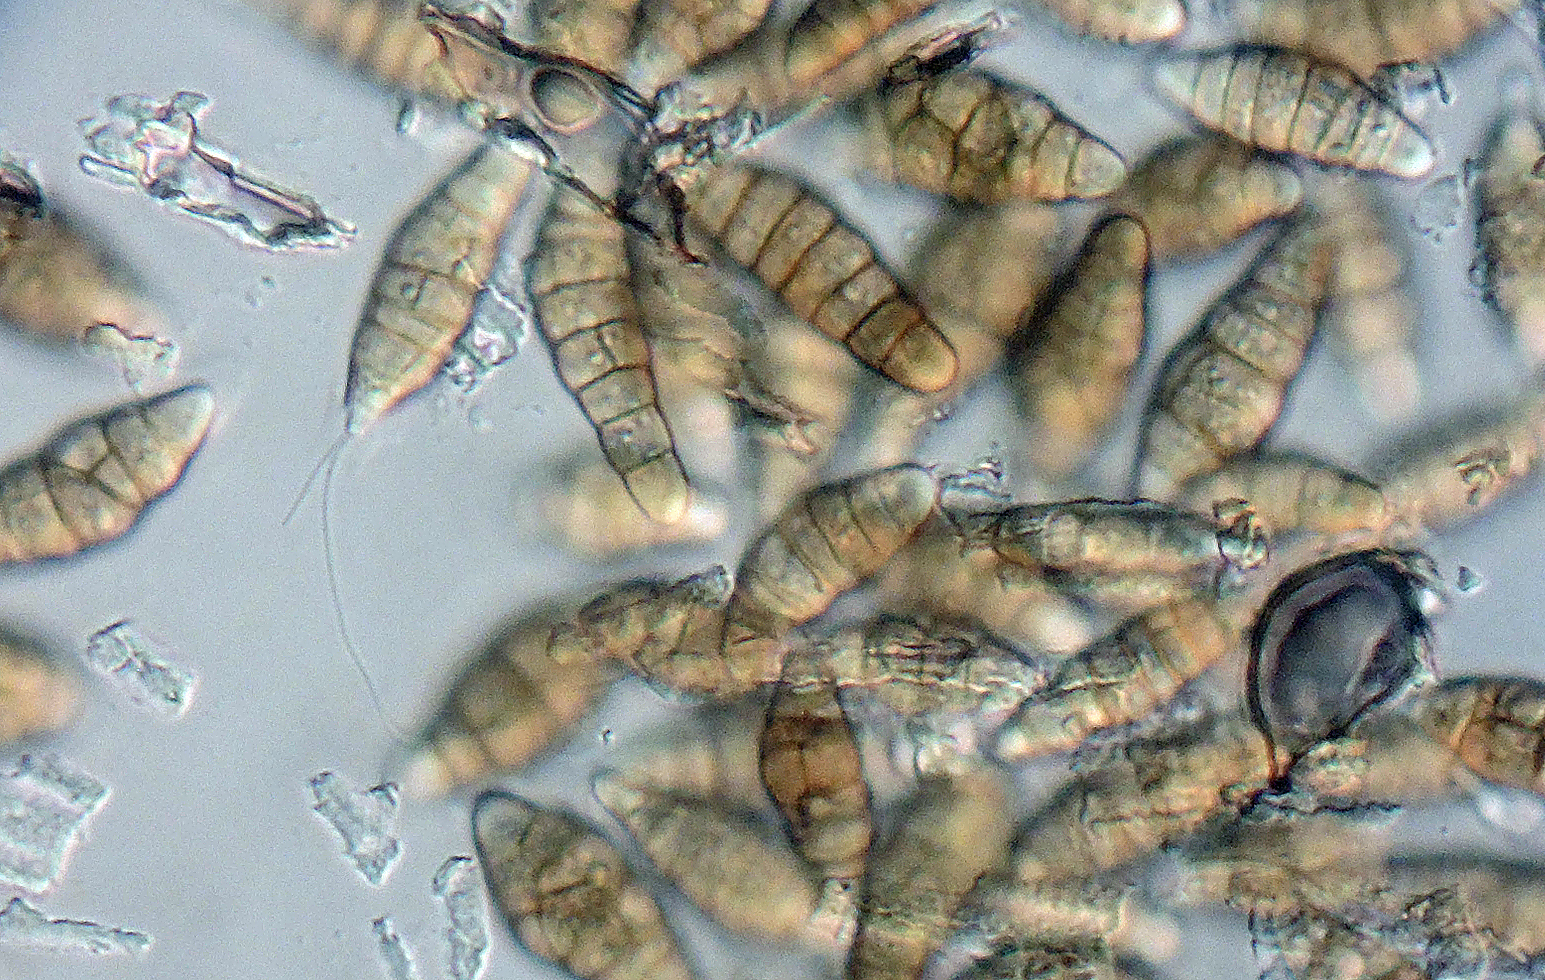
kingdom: Fungi
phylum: Ascomycota
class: Dothideomycetes
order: Pleosporales
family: Phaeosphaeriaceae
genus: Amarenographium
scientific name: Amarenographium metableticum
